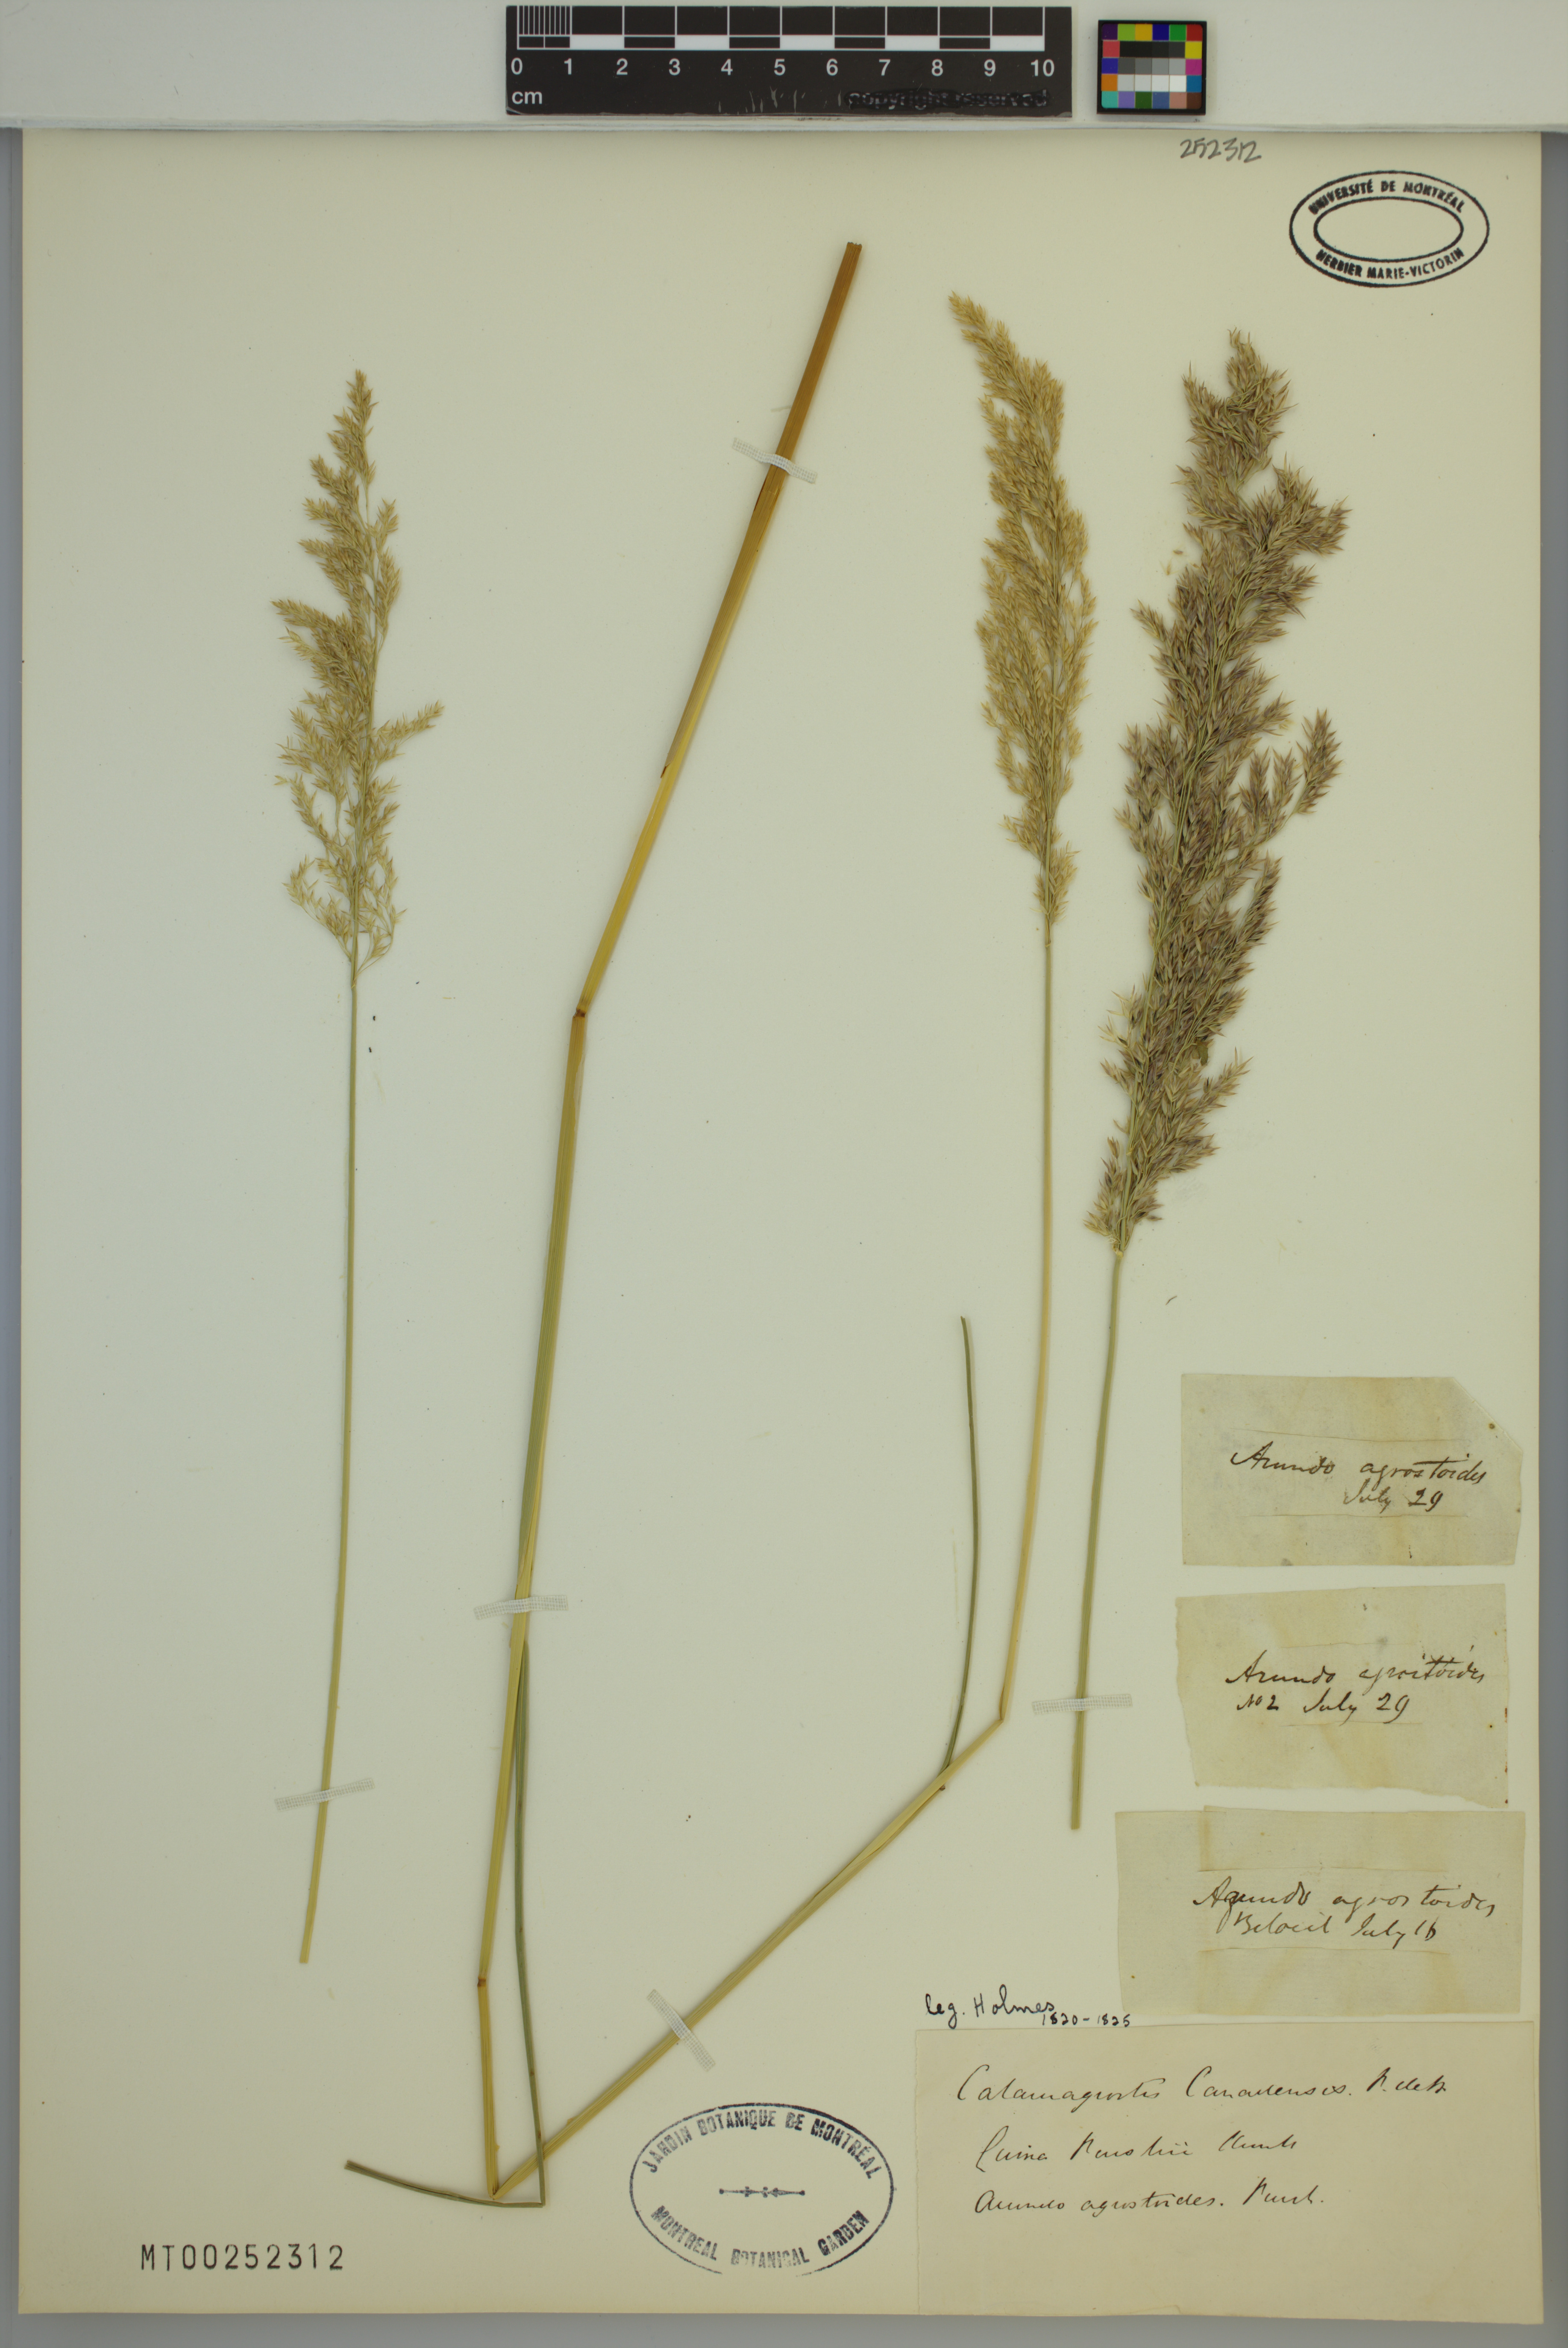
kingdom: Plantae
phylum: Tracheophyta
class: Liliopsida
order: Poales
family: Poaceae
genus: Calamagrostis
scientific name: Calamagrostis canadensis
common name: Canada bluejoint
